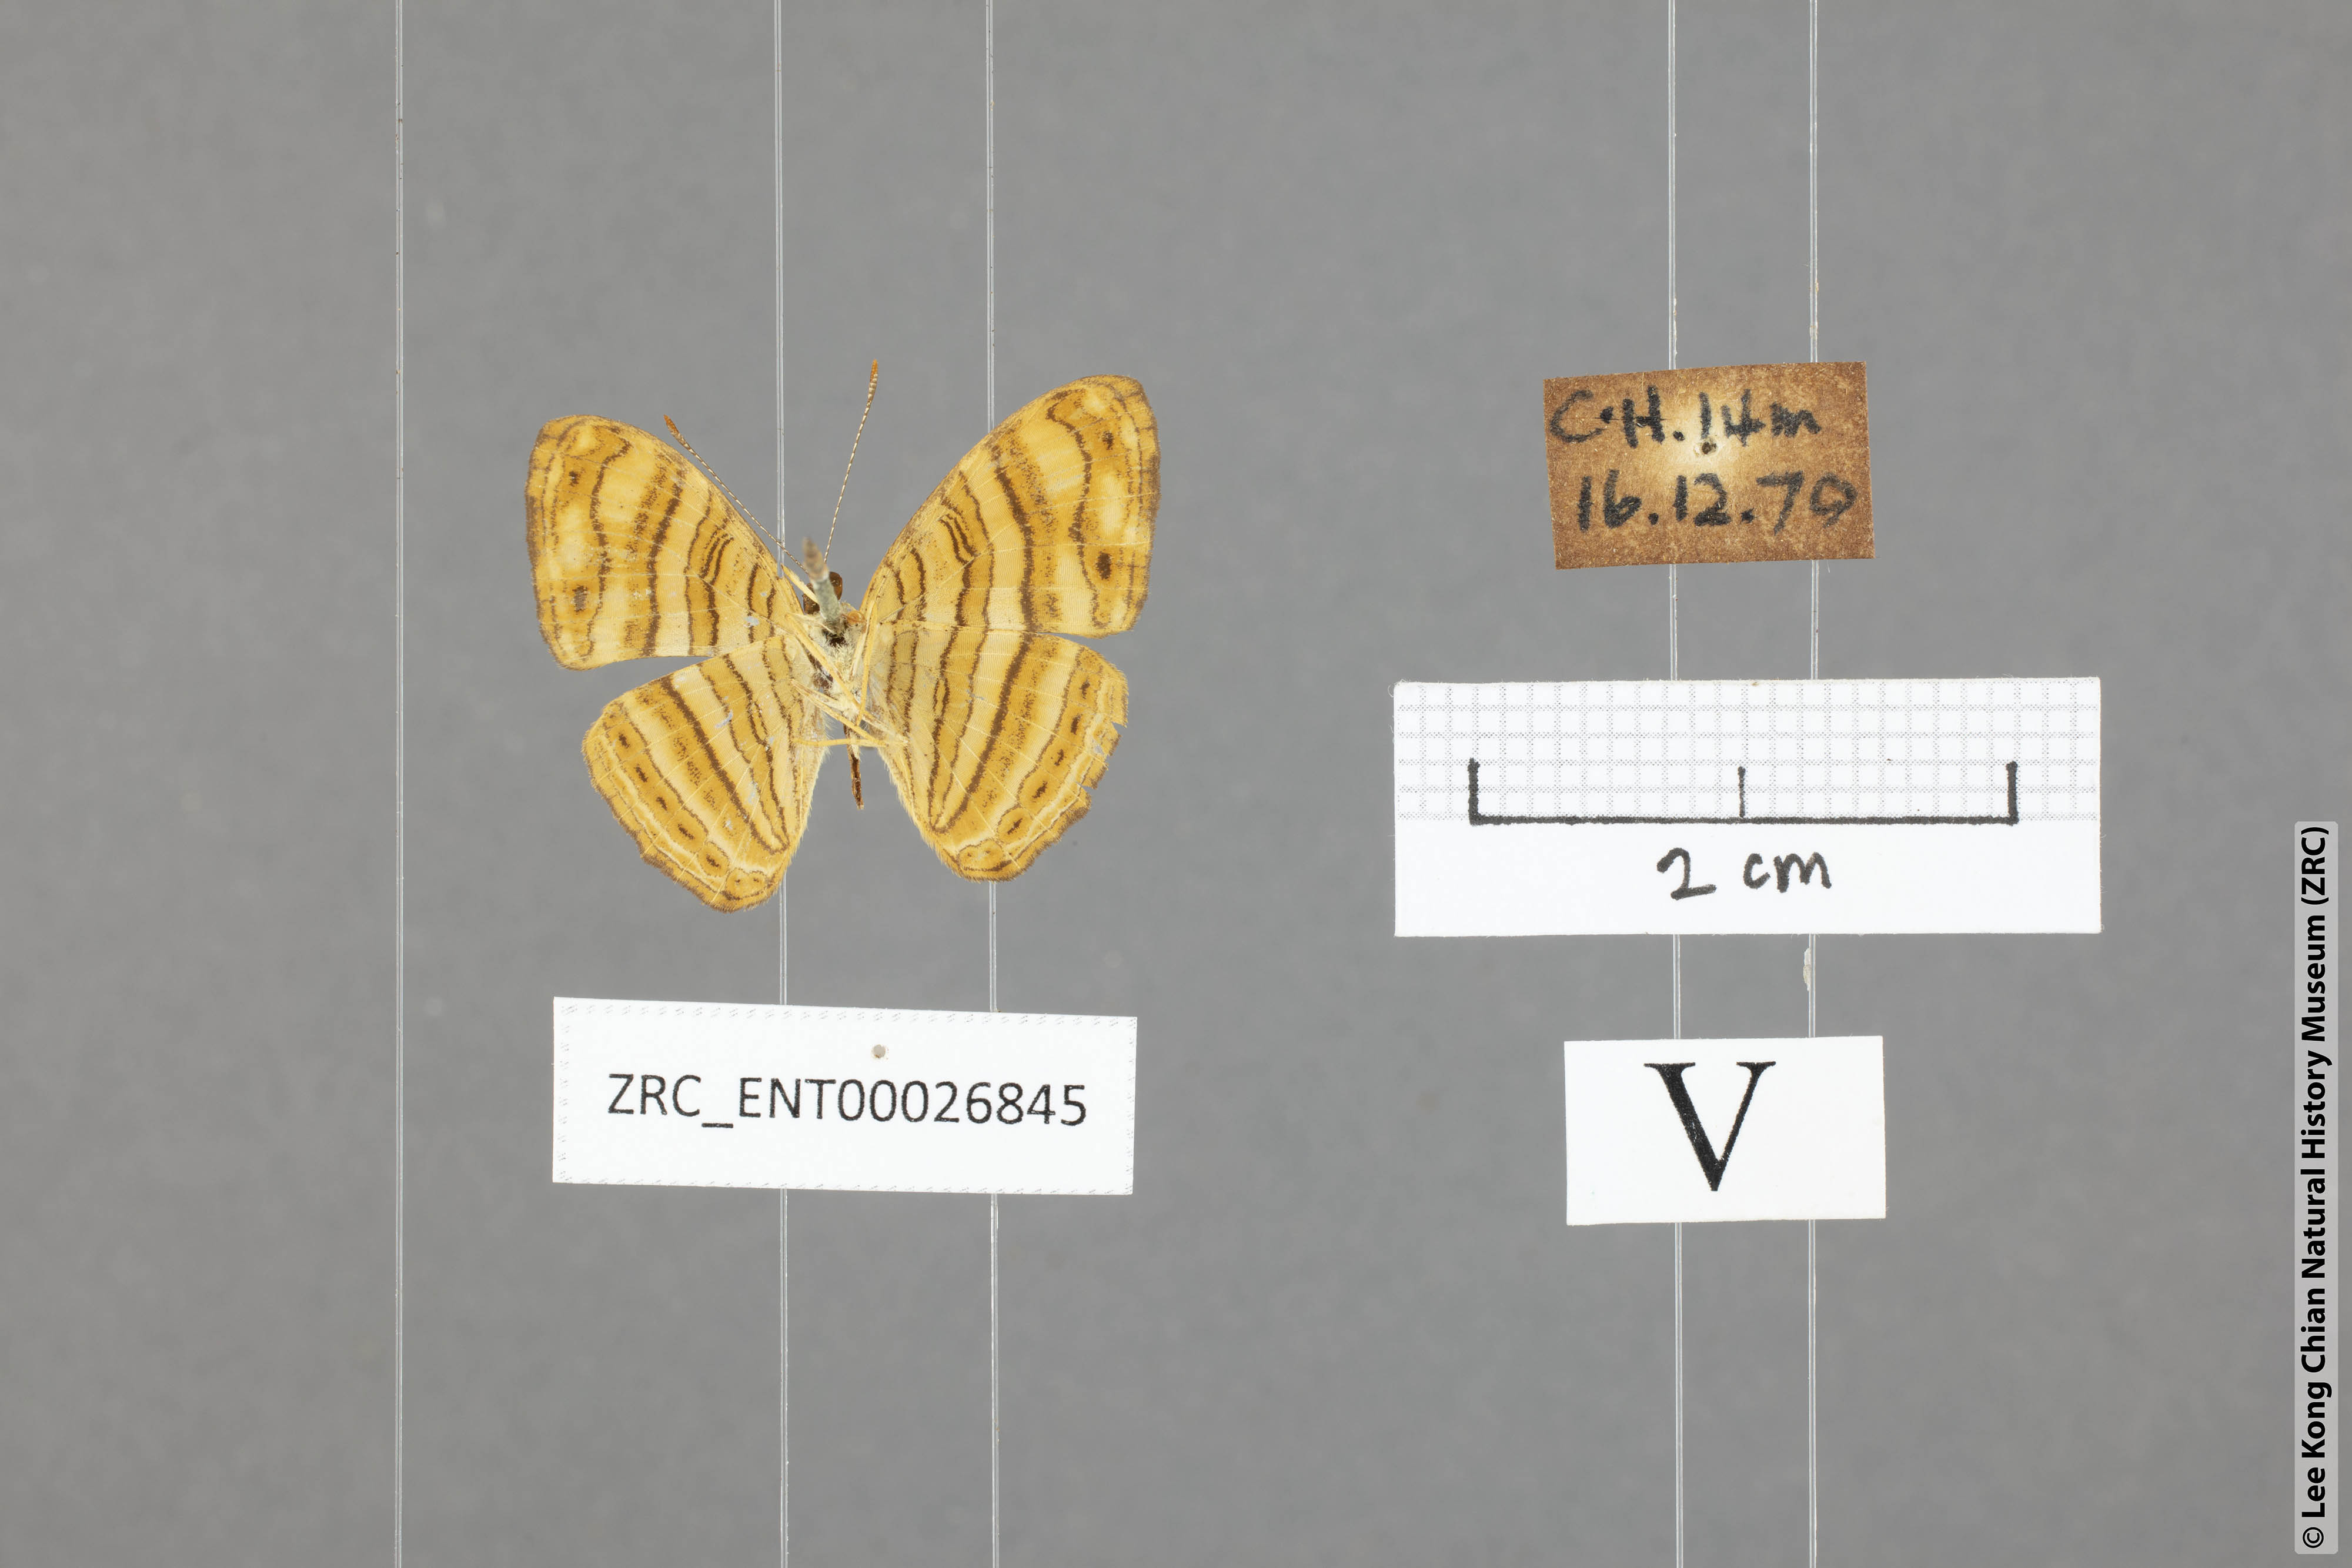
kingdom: Animalia
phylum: Arthropoda
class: Insecta
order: Lepidoptera
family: Nymphalidae
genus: Chersonesia
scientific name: Chersonesia peraka
